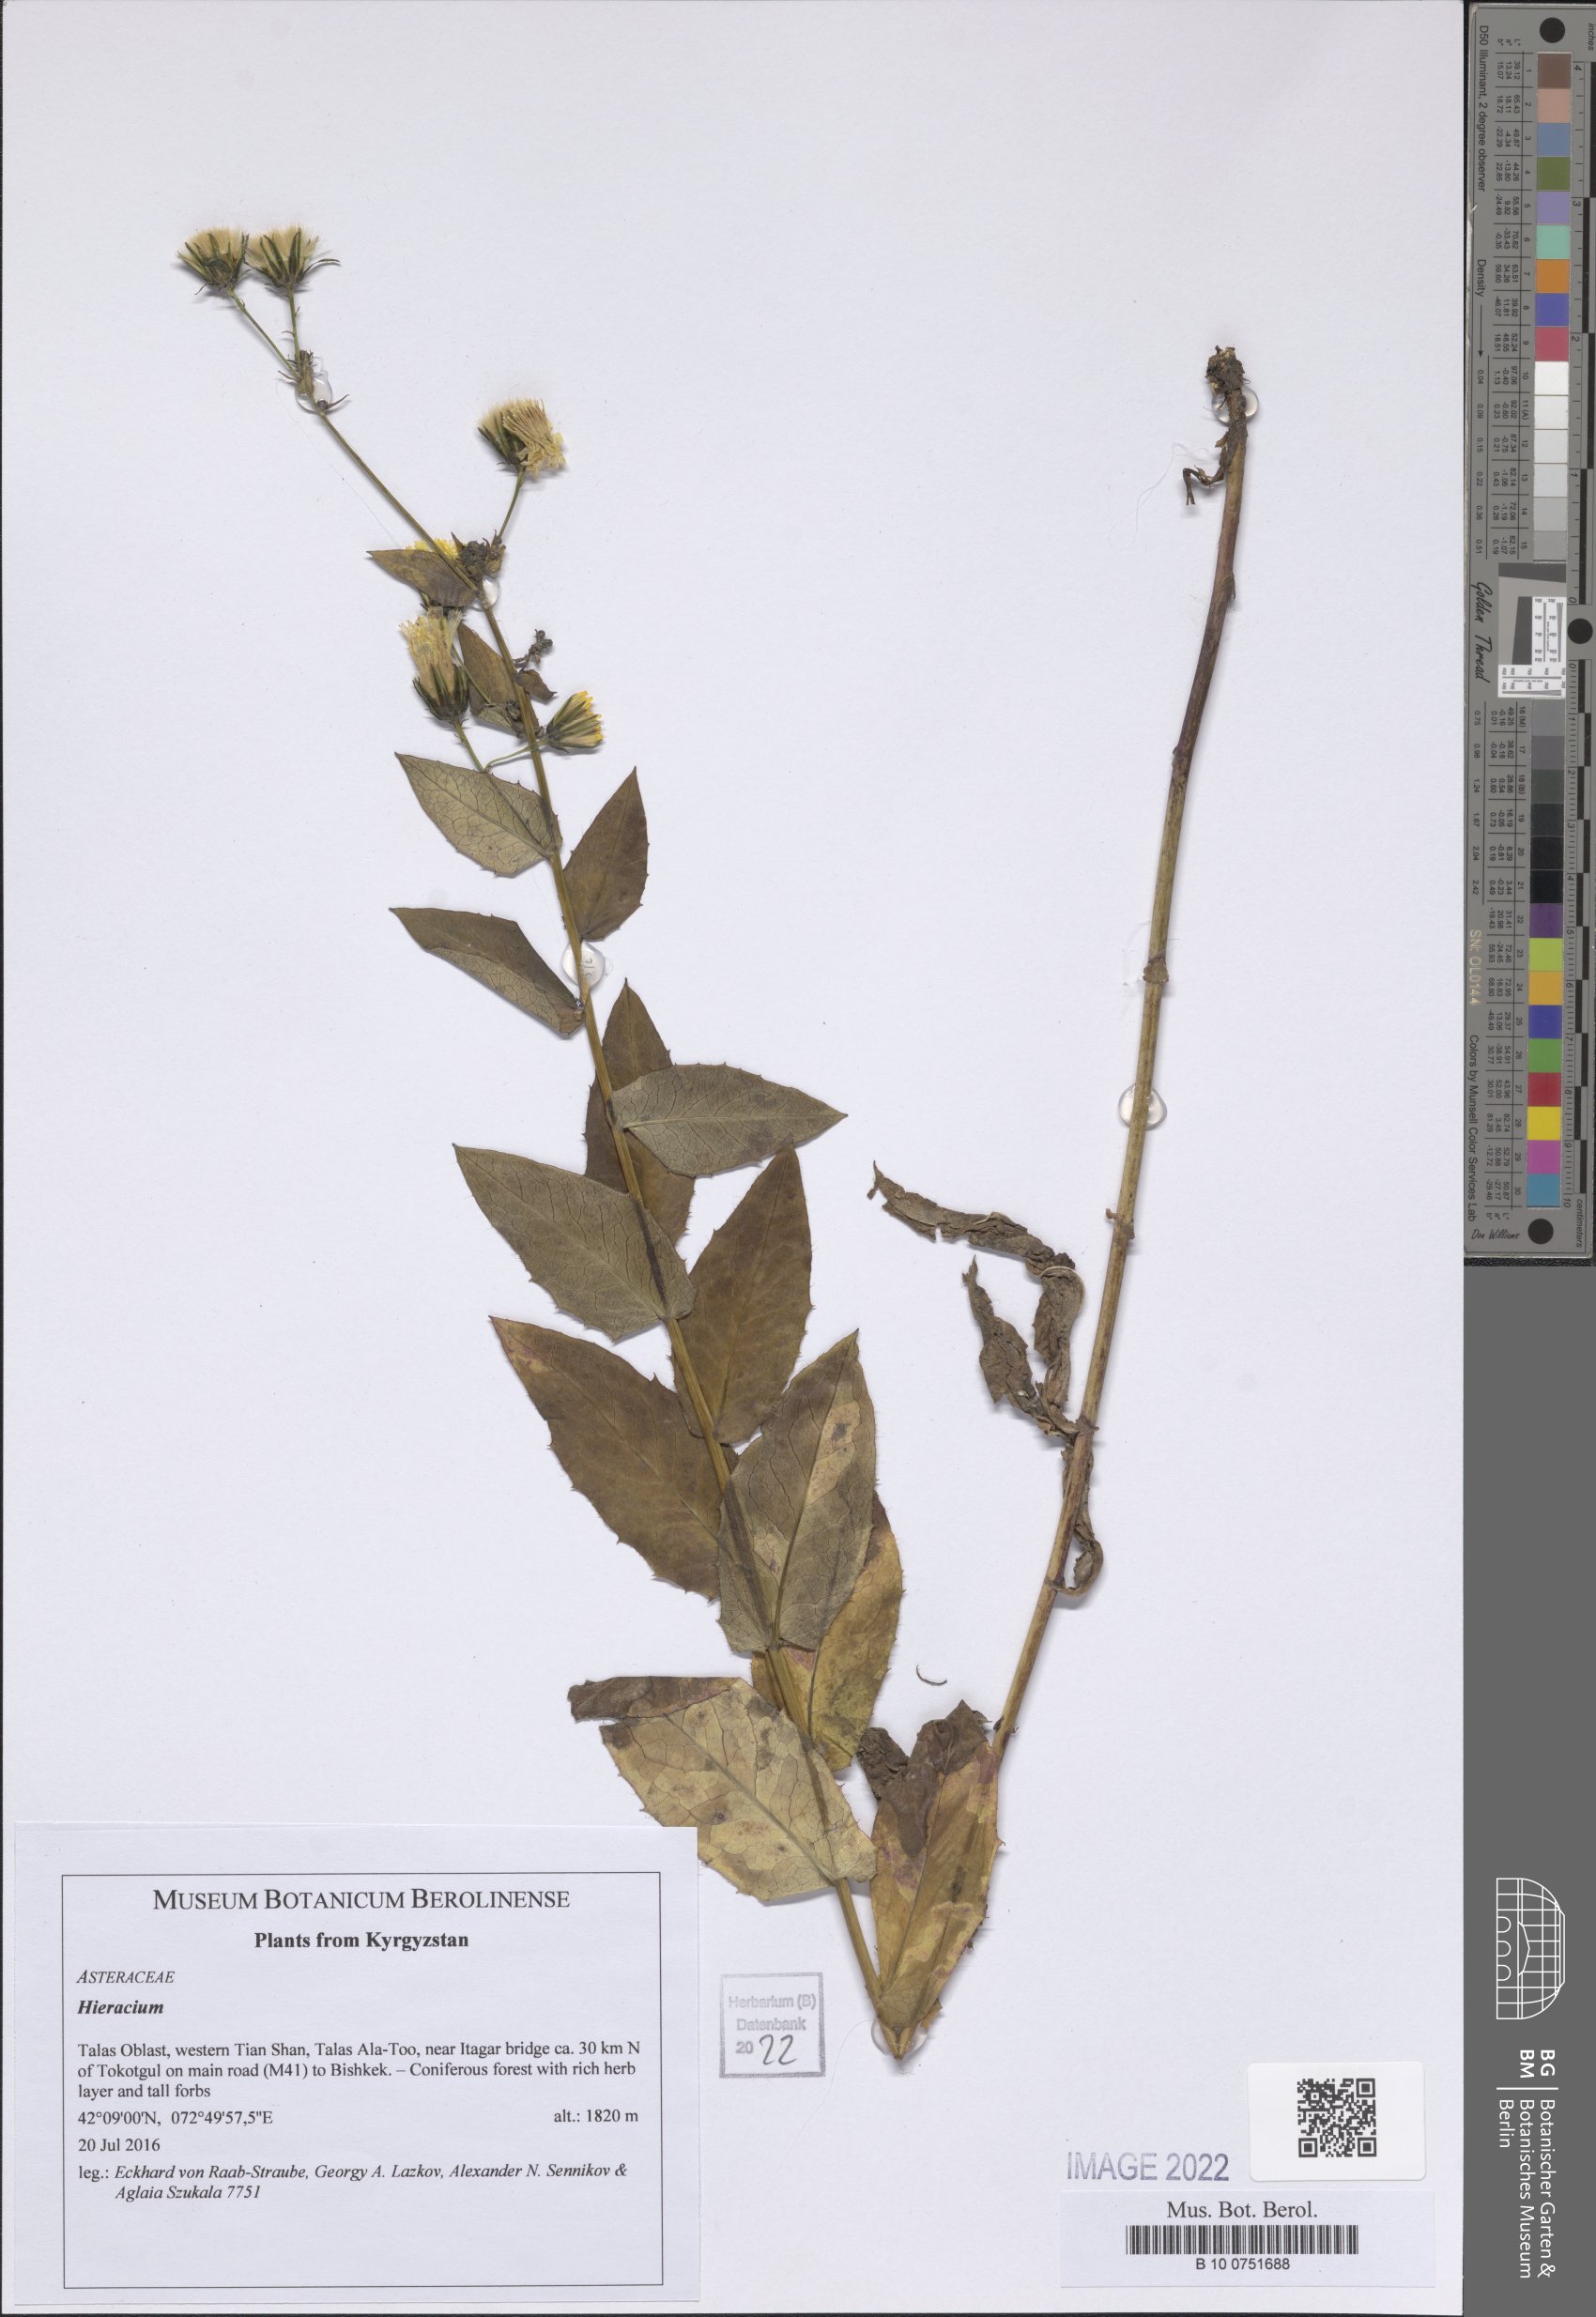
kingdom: Plantae
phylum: Tracheophyta
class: Magnoliopsida
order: Asterales
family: Asteraceae
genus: Hieracium
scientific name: Hieracium
